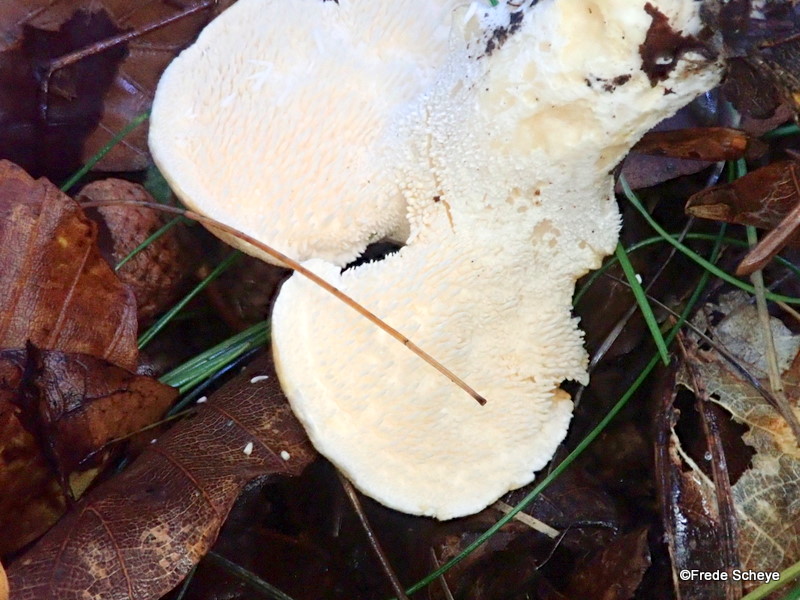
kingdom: Fungi
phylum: Basidiomycota
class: Agaricomycetes
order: Cantharellales
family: Hydnaceae
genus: Hydnum
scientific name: Hydnum repandum
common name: almindelig pigsvamp
